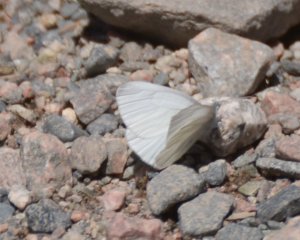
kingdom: Animalia
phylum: Arthropoda
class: Insecta
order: Lepidoptera
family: Pieridae
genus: Pieris
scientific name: Pieris virginiensis
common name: West Virginia White
